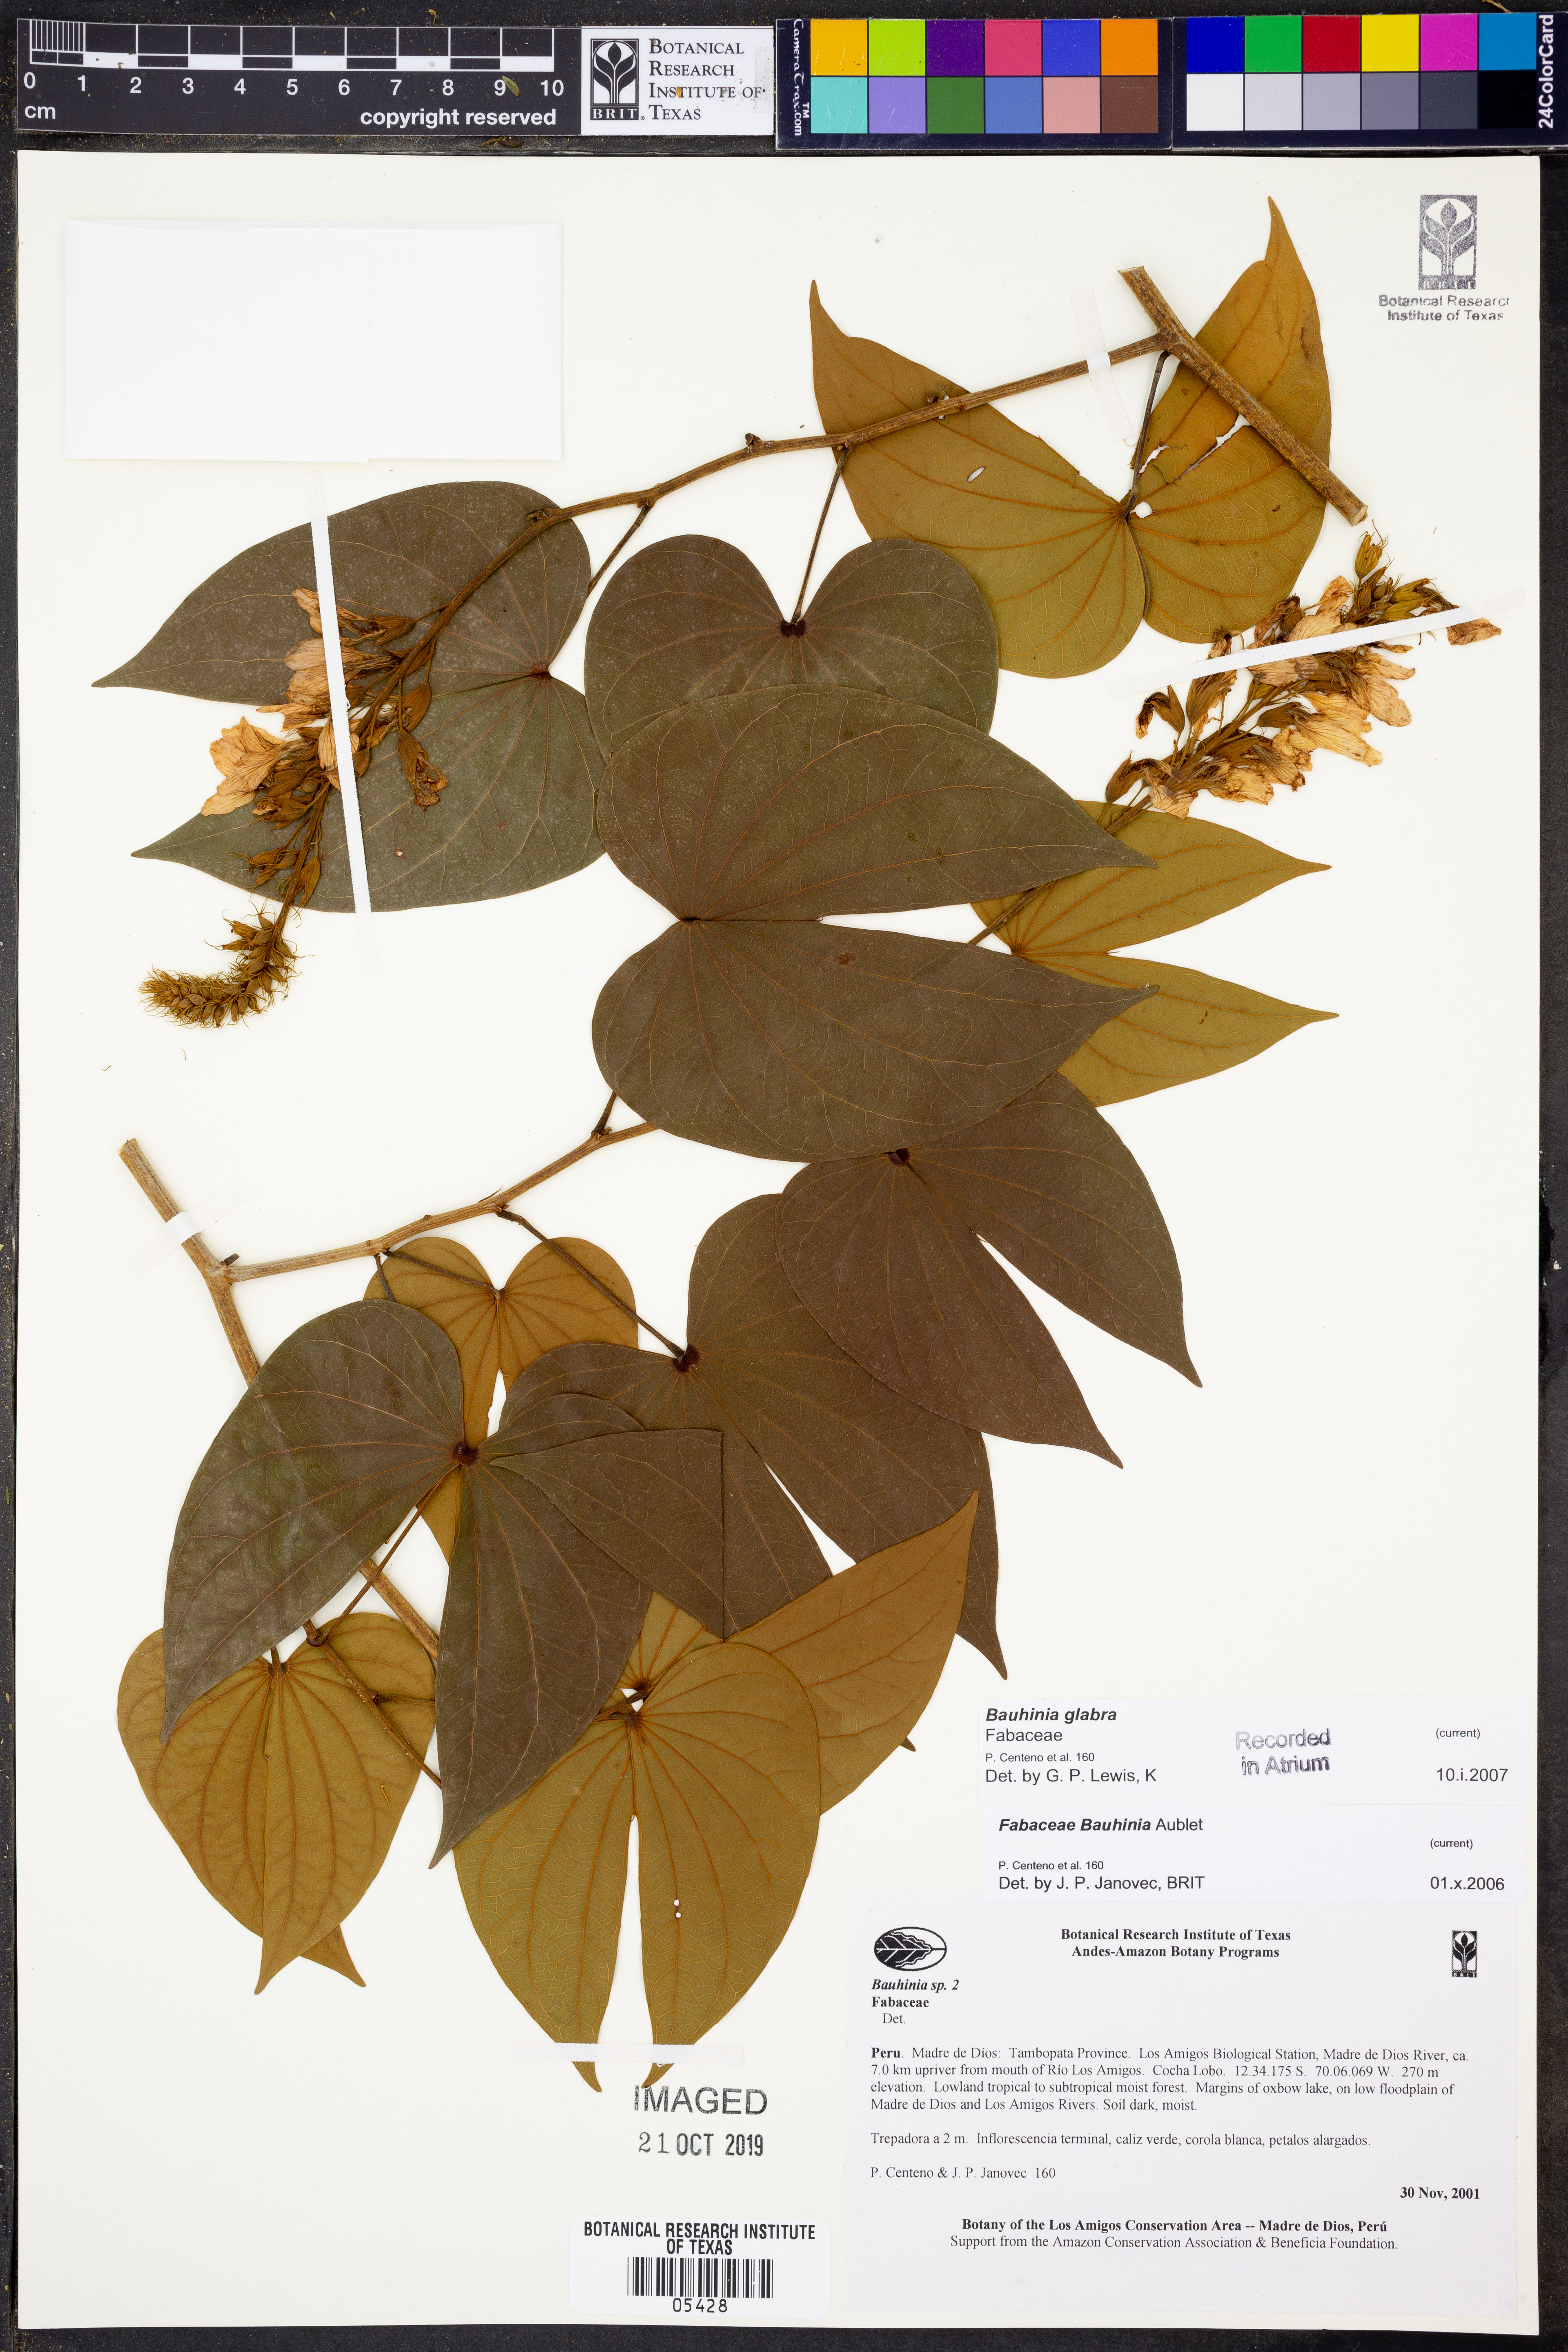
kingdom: Plantae
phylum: Tracheophyta
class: Magnoliopsida
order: Fabales
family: Fabaceae
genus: Bauhinia
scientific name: Bauhinia
